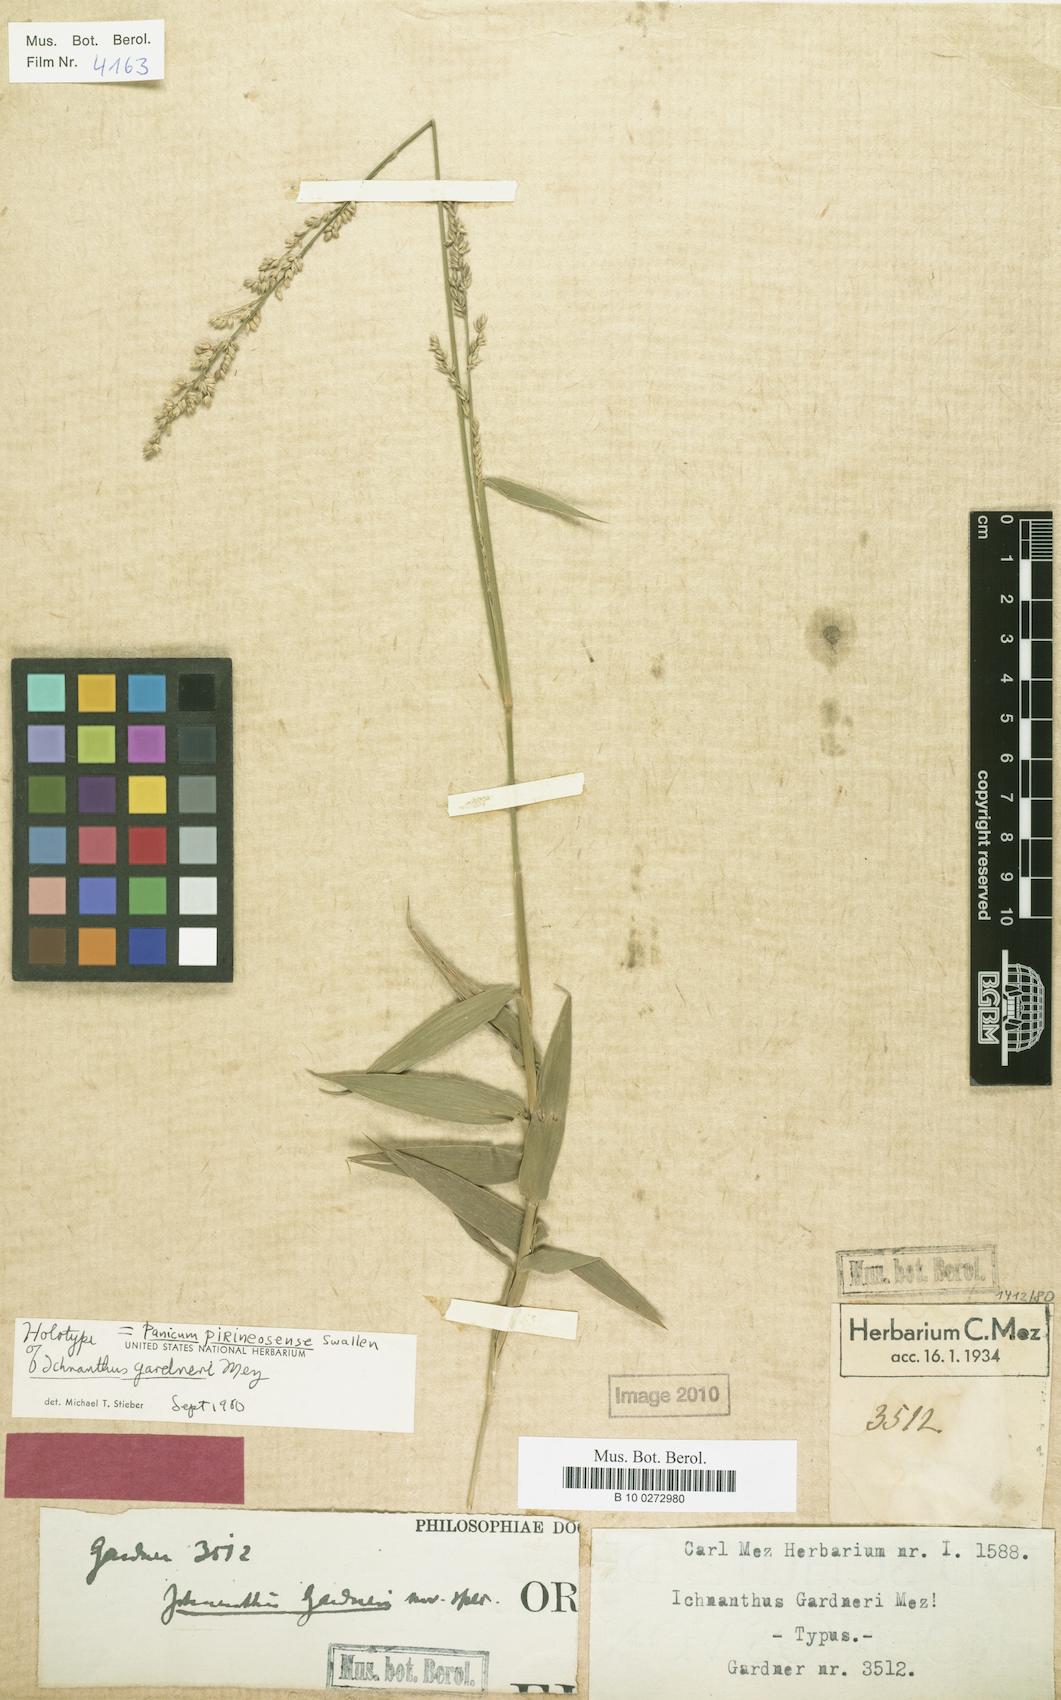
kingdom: Plantae
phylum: Tracheophyta
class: Liliopsida
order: Poales
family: Poaceae
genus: Ocellochloa
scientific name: Ocellochloa gardneri
